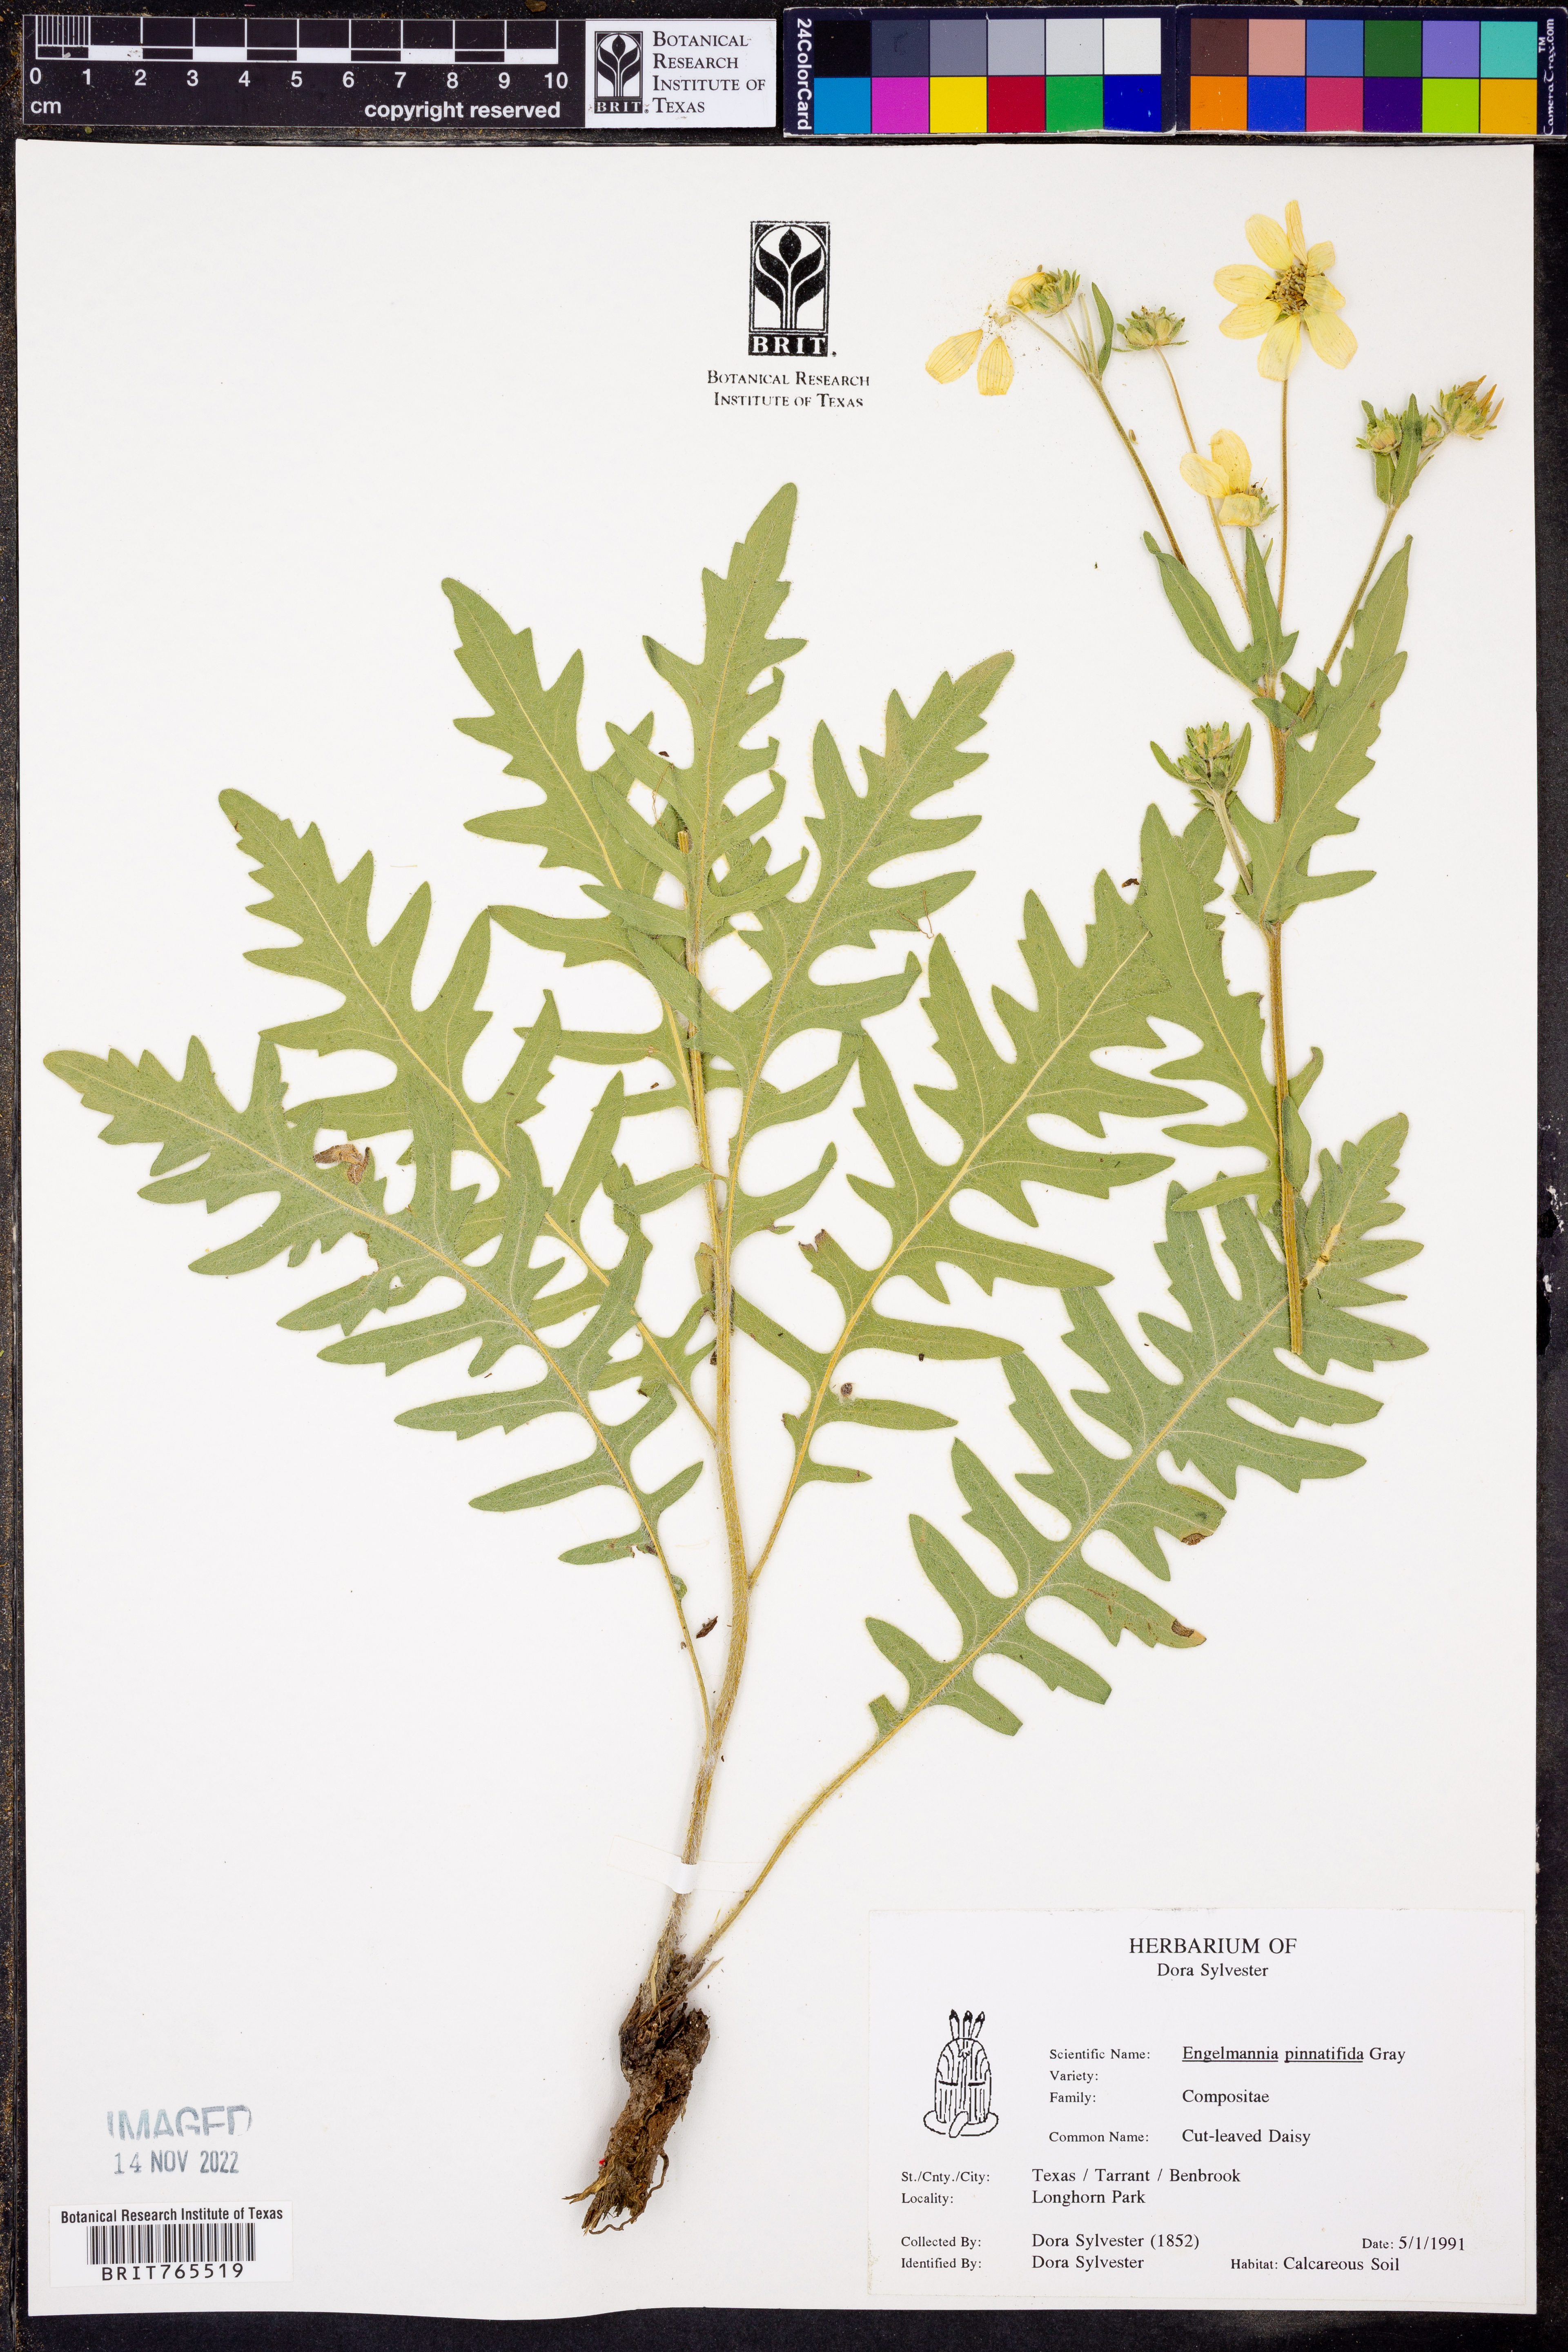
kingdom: Plantae
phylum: Tracheophyta
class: Magnoliopsida
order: Asterales
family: Asteraceae
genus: Engelmannia
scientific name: Engelmannia peristenia
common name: Engelmann's daisy
